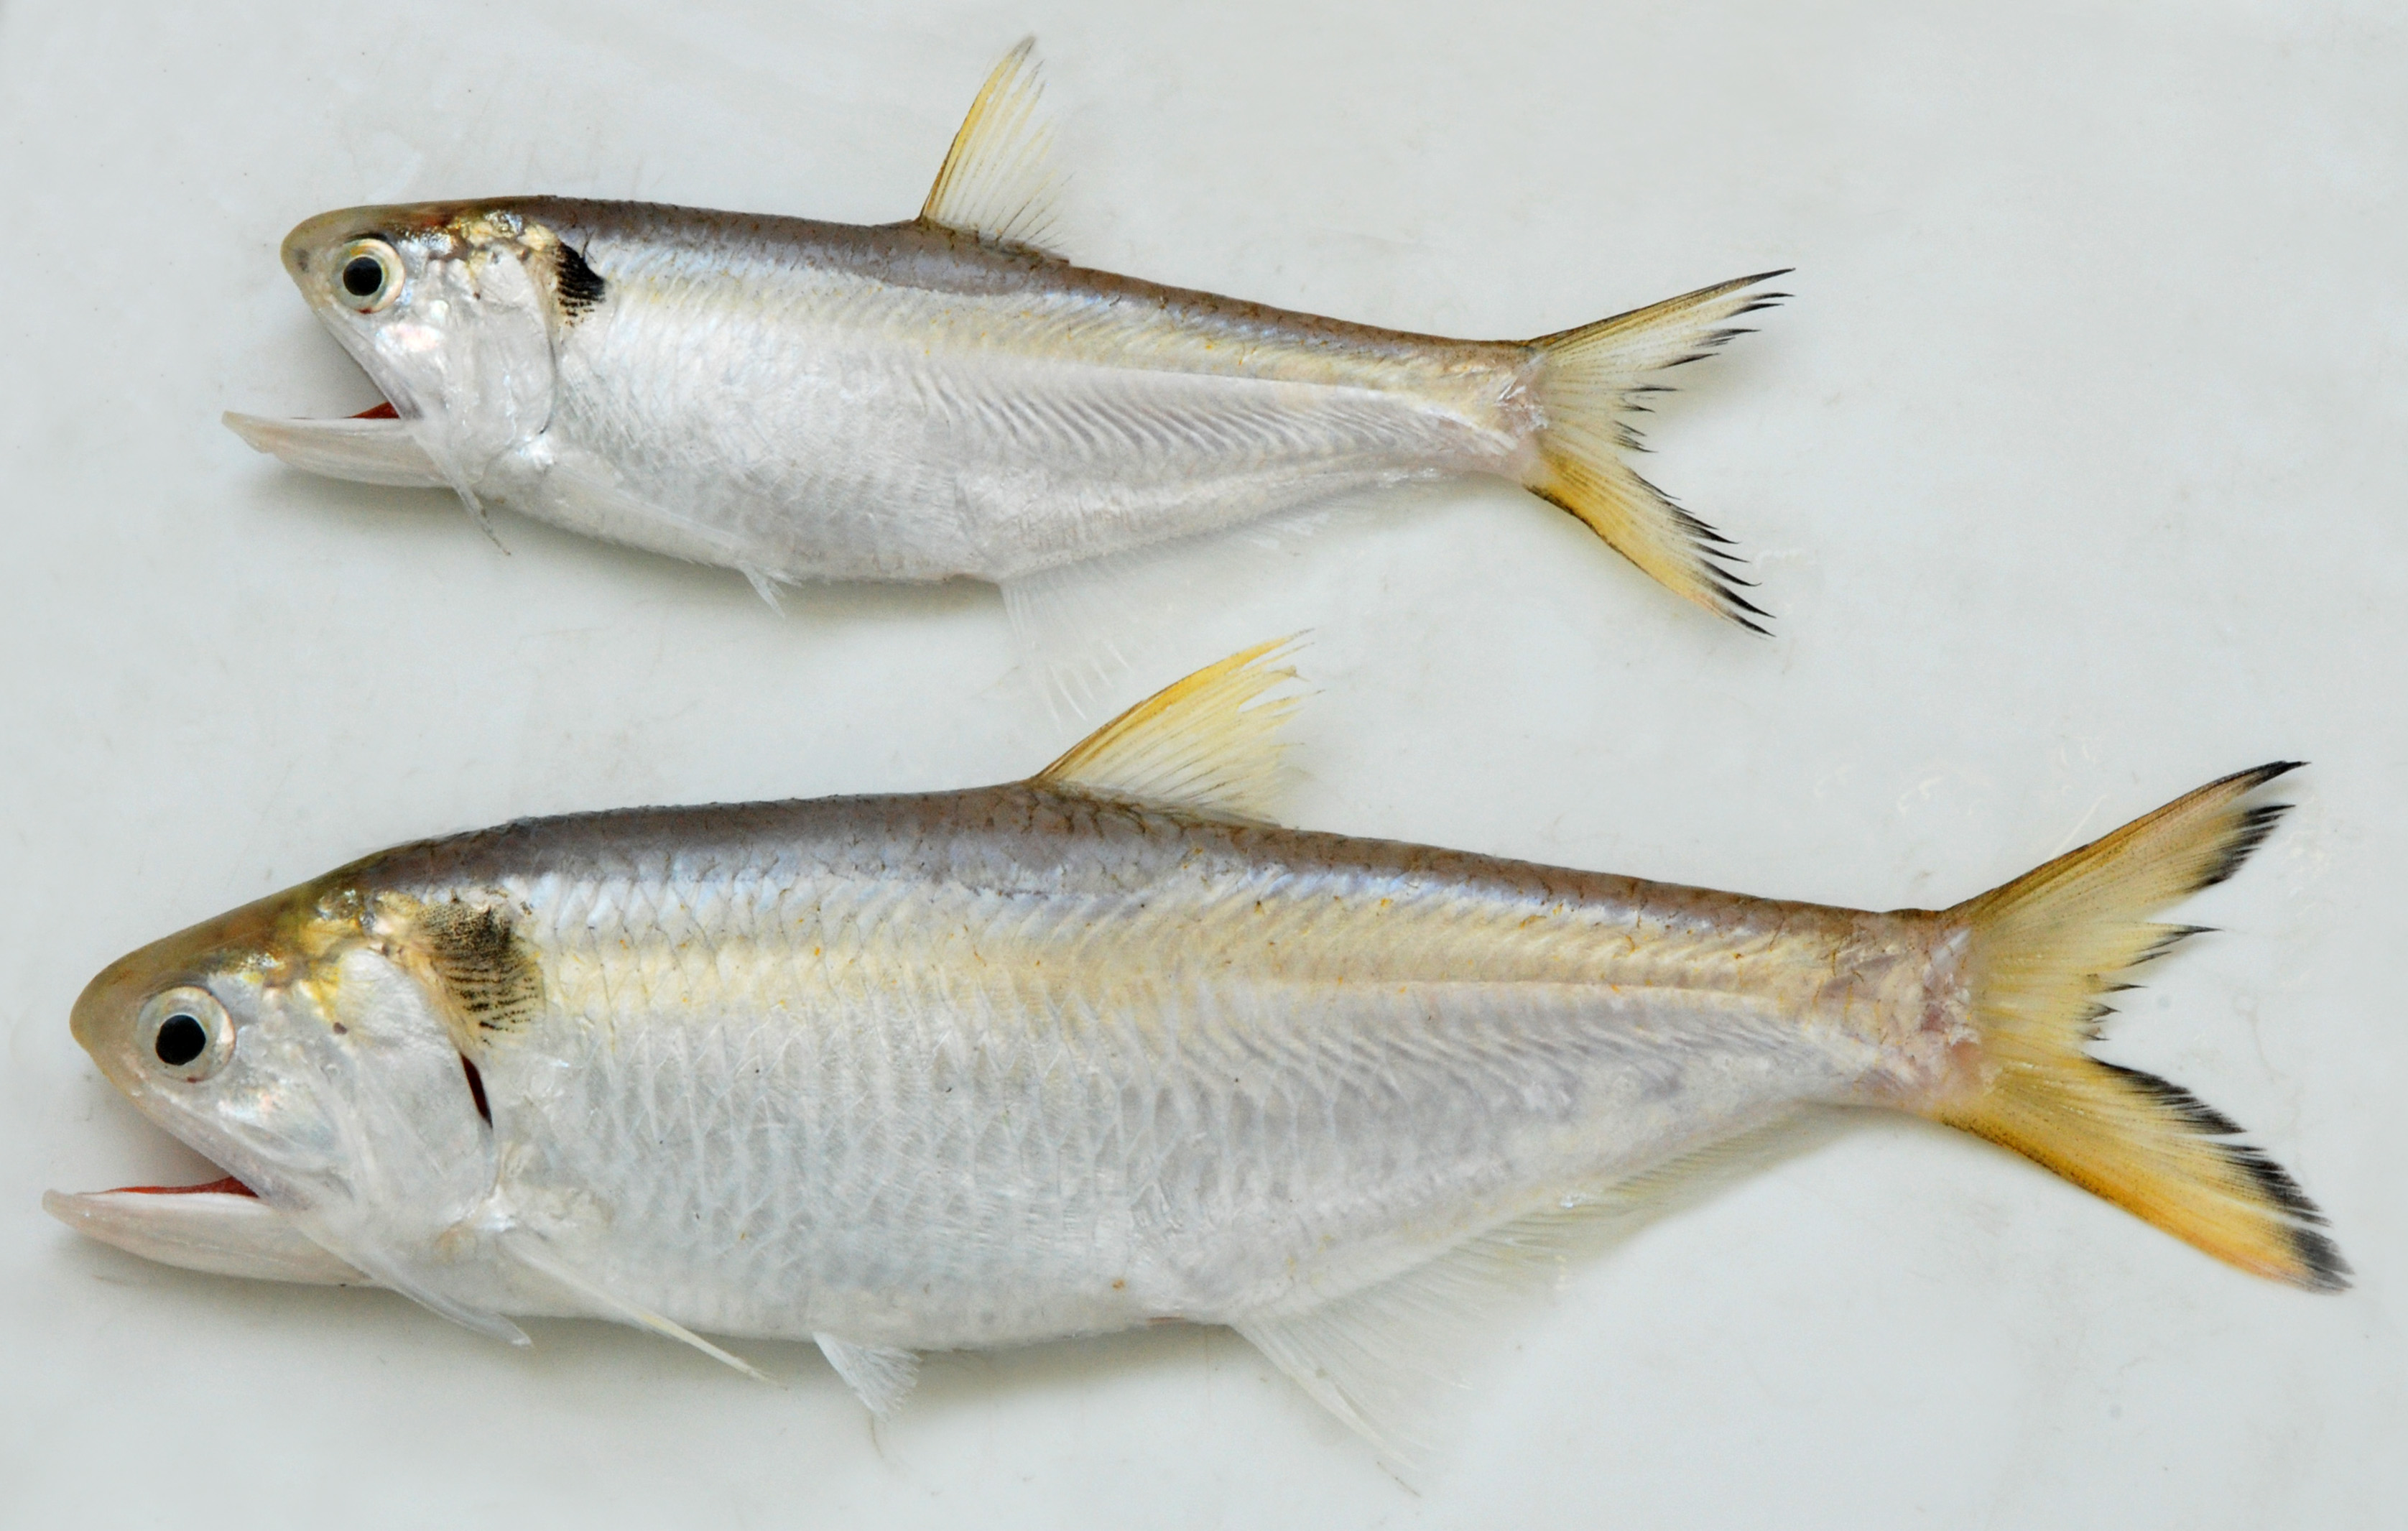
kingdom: Animalia
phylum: Chordata
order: Clupeiformes
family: Engraulidae
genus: Thryssa
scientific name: Thryssa vitrirostris
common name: Orangemouth anchovy
